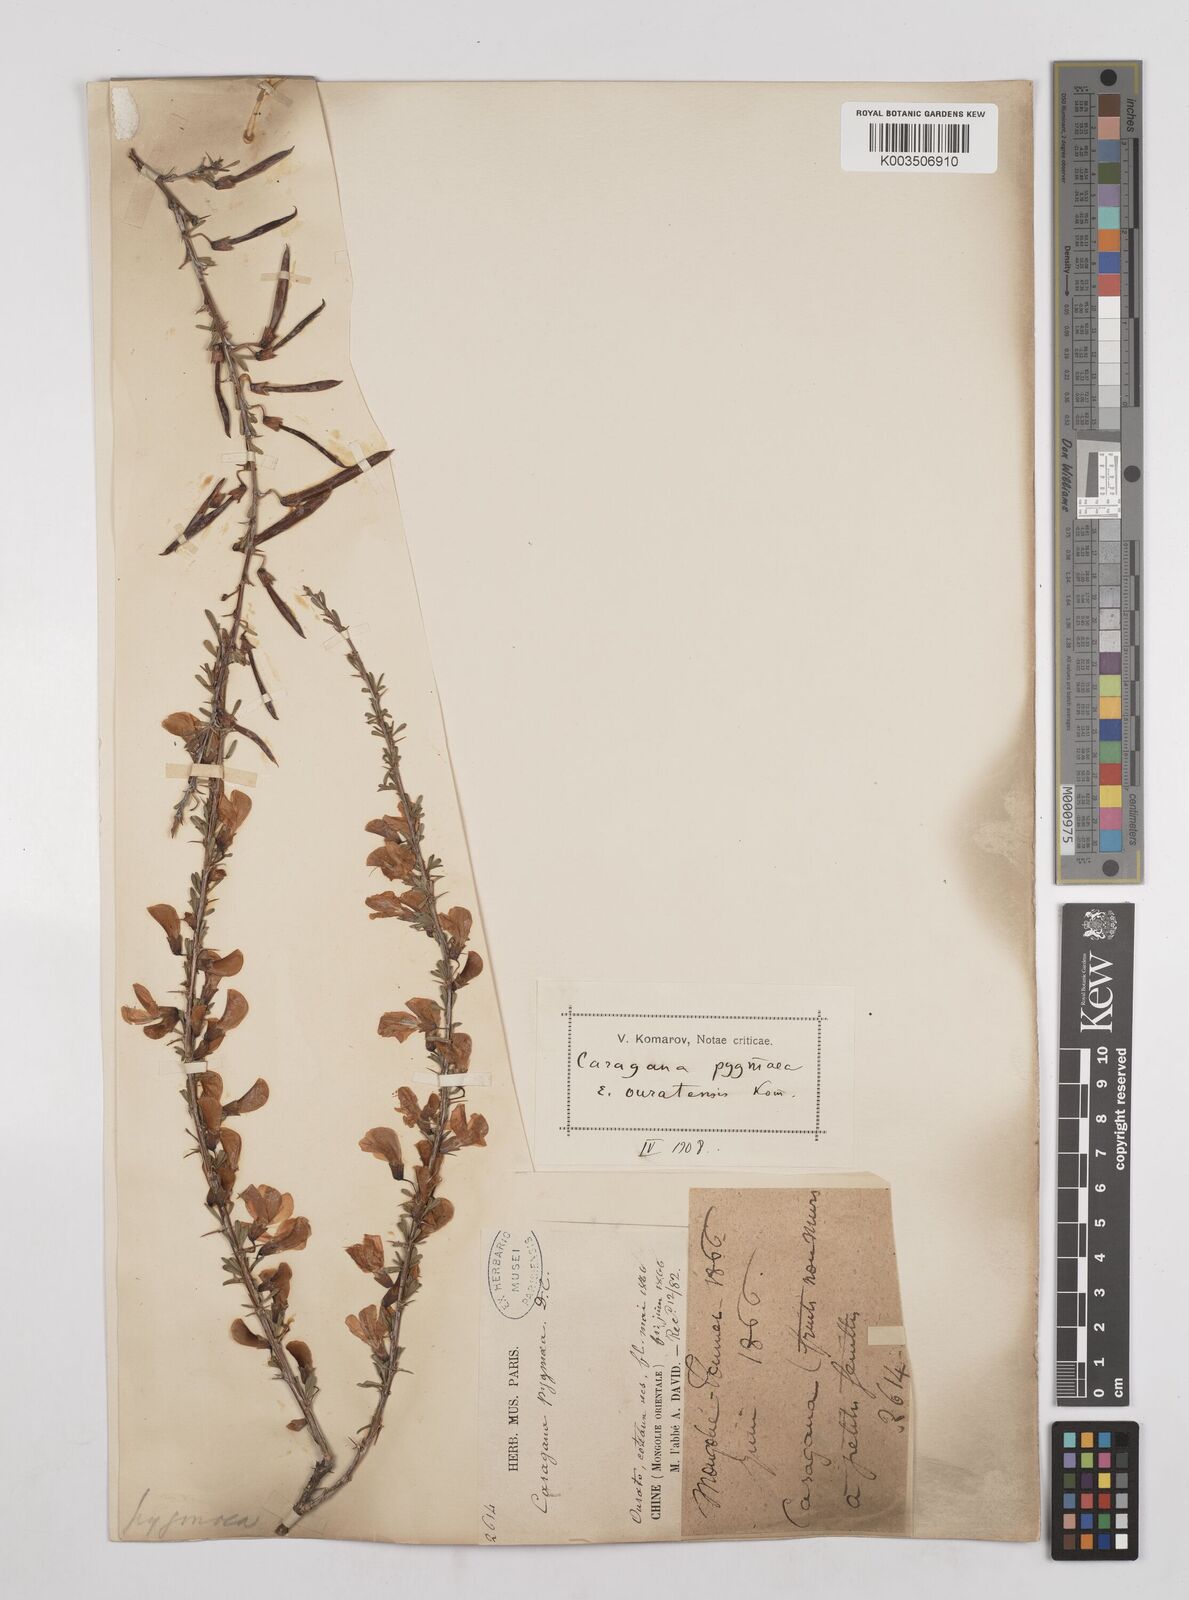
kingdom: Plantae
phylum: Tracheophyta
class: Magnoliopsida
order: Fabales
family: Fabaceae
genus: Caragana
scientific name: Caragana pygmaea
